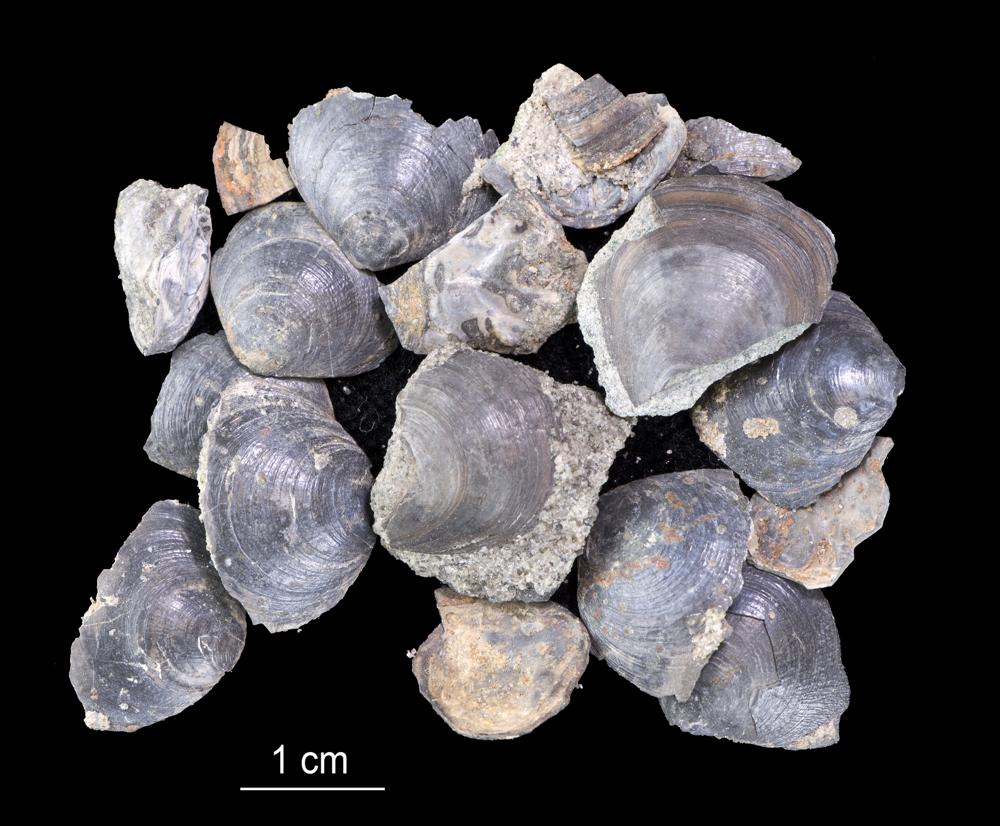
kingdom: Animalia
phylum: Brachiopoda
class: Lingulata
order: Lingulida
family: Obolidae
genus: Obolus
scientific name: Obolus
